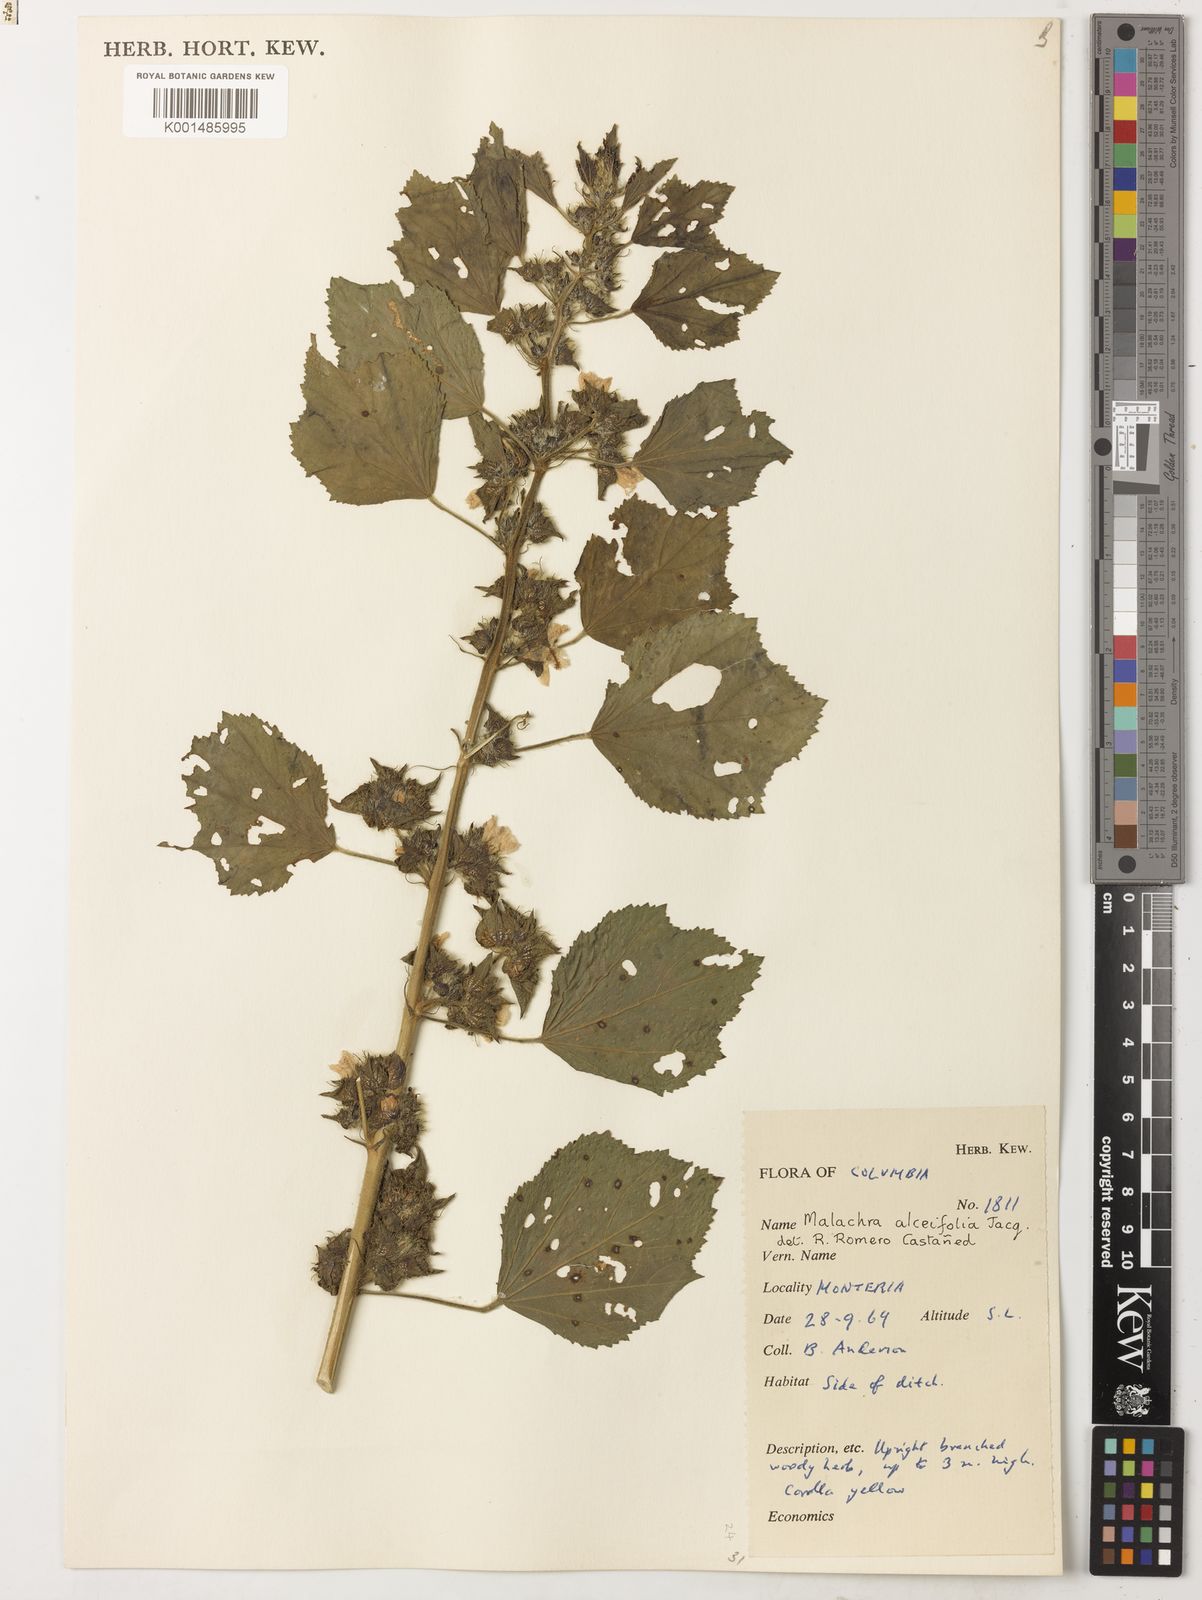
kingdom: Plantae
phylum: Tracheophyta
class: Magnoliopsida
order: Malvales
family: Malvaceae
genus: Malachra
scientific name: Malachra alceifolia
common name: Yellow leafbract
